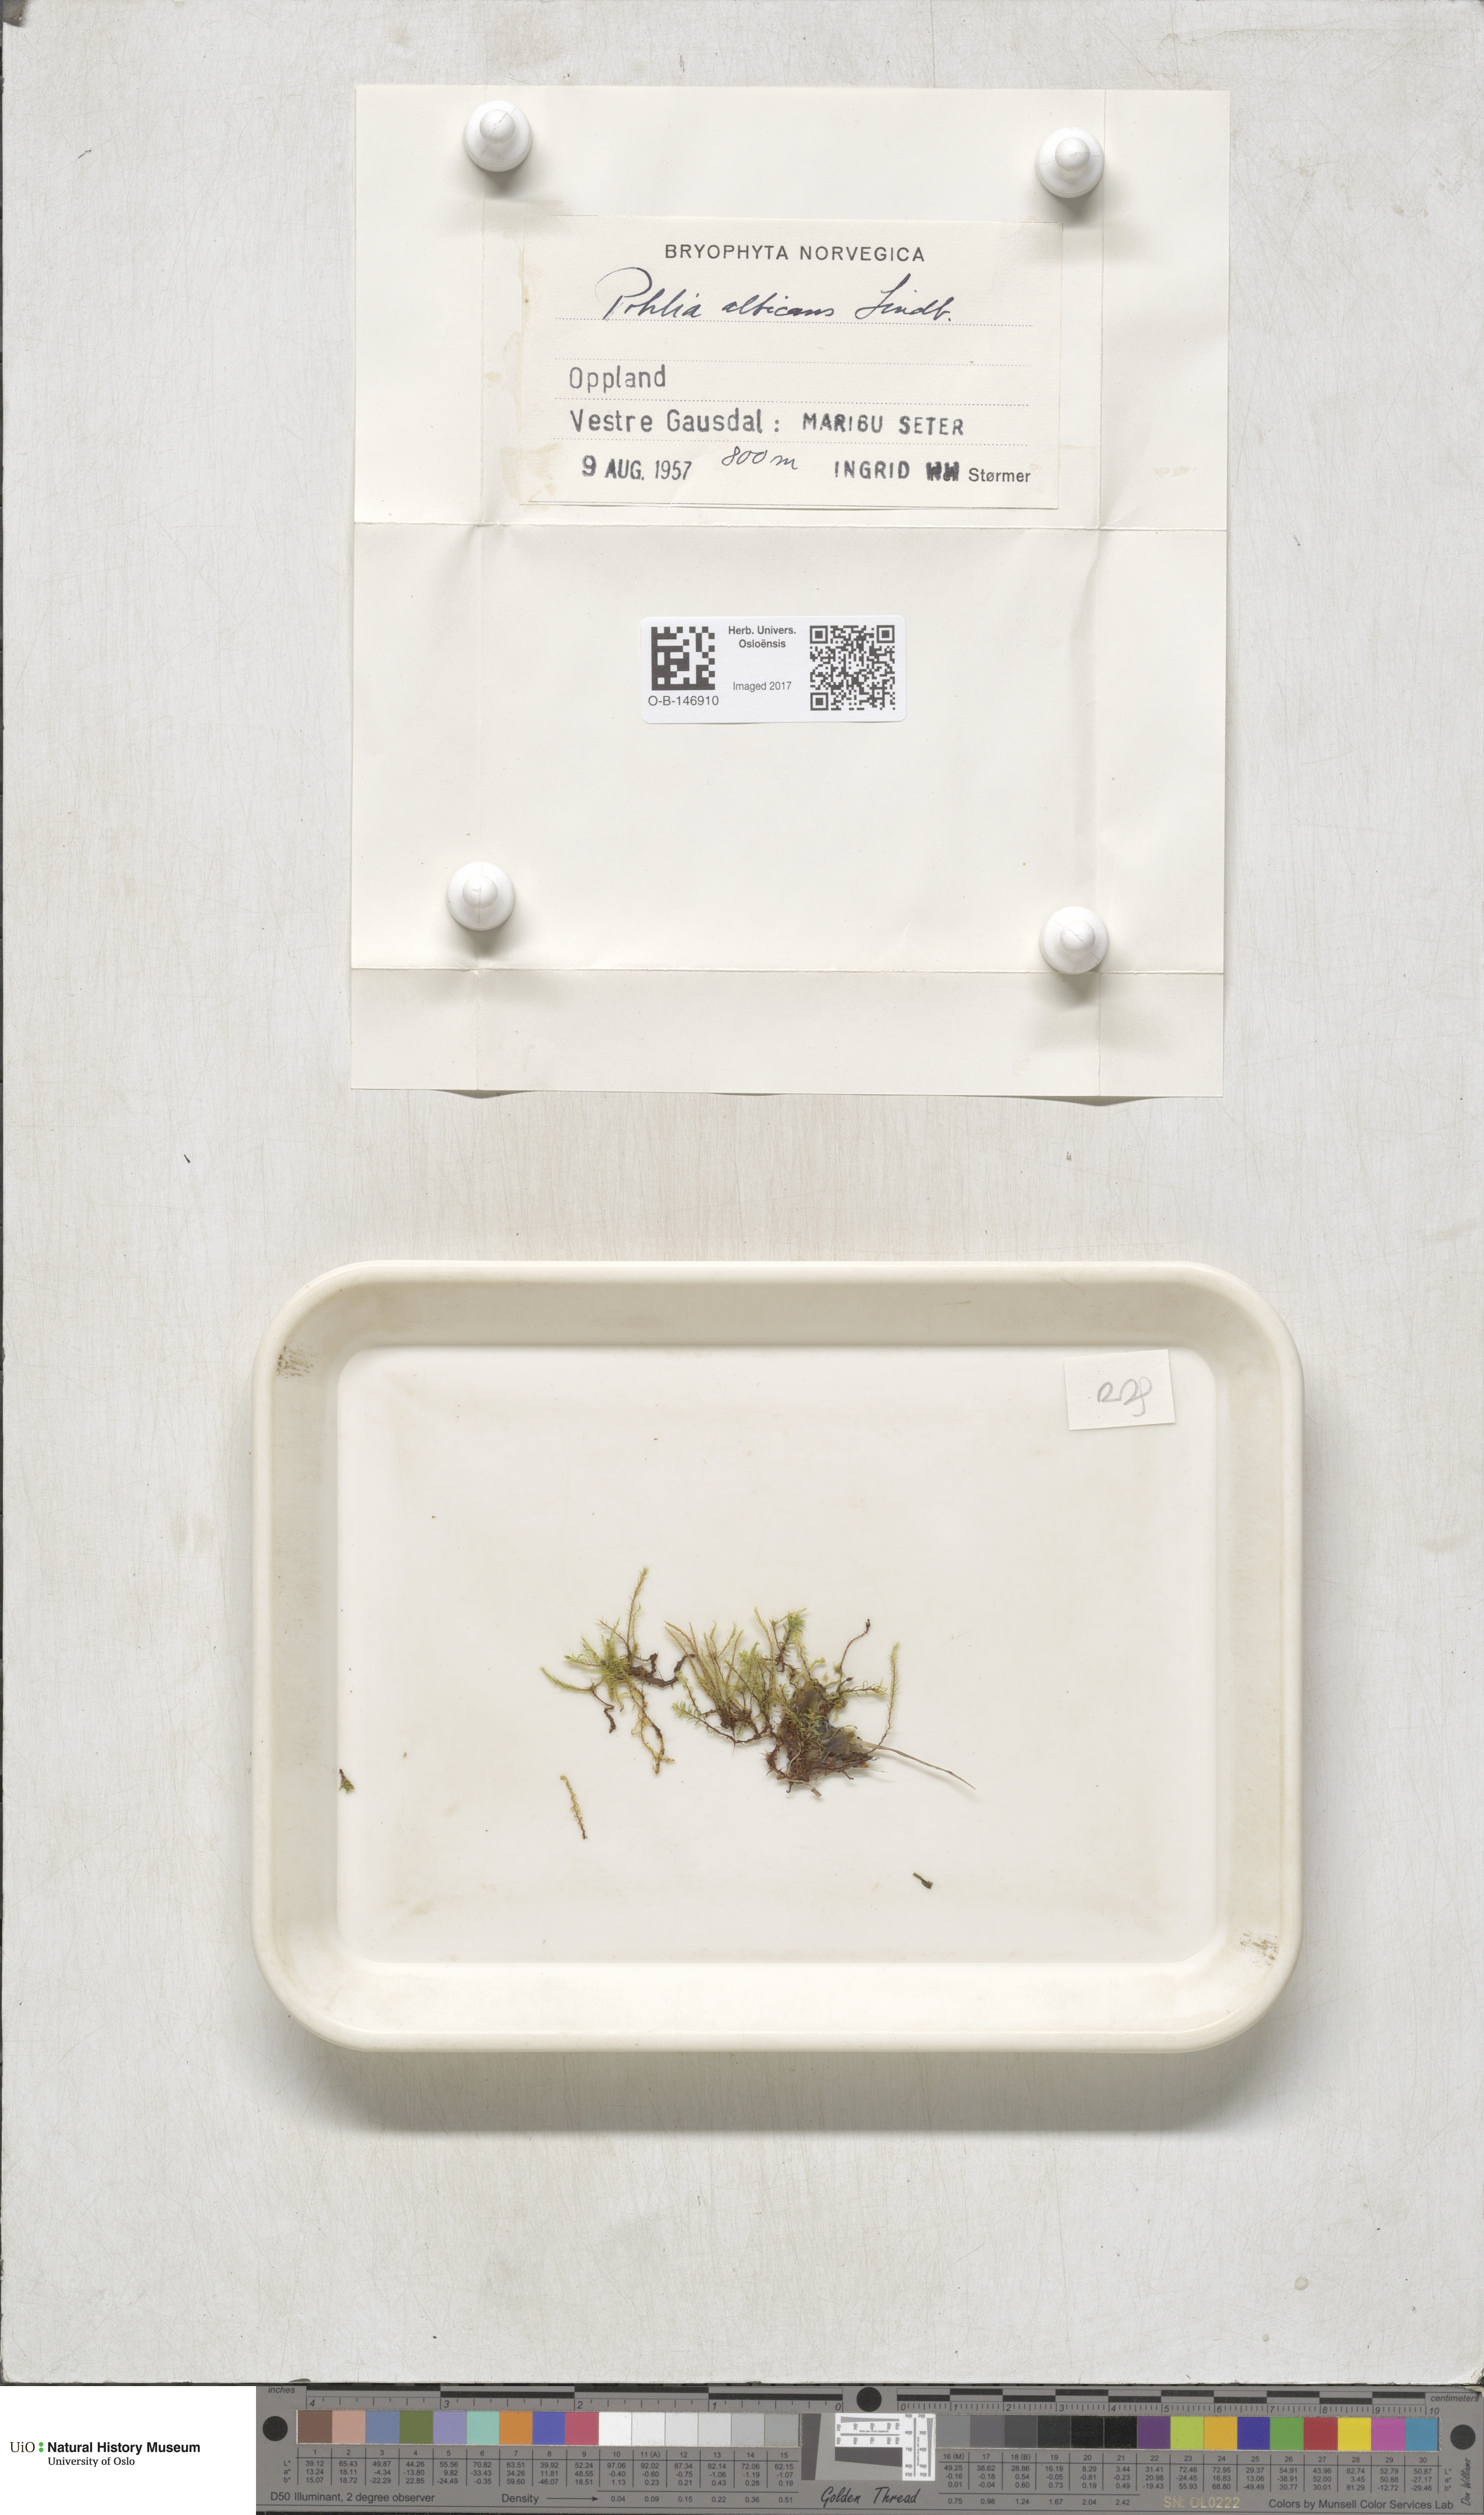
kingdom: Plantae
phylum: Bryophyta
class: Bryopsida
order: Bryales
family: Mniaceae
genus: Pohlia
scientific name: Pohlia wahlenbergii
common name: Wahlenberg's nodding moss
